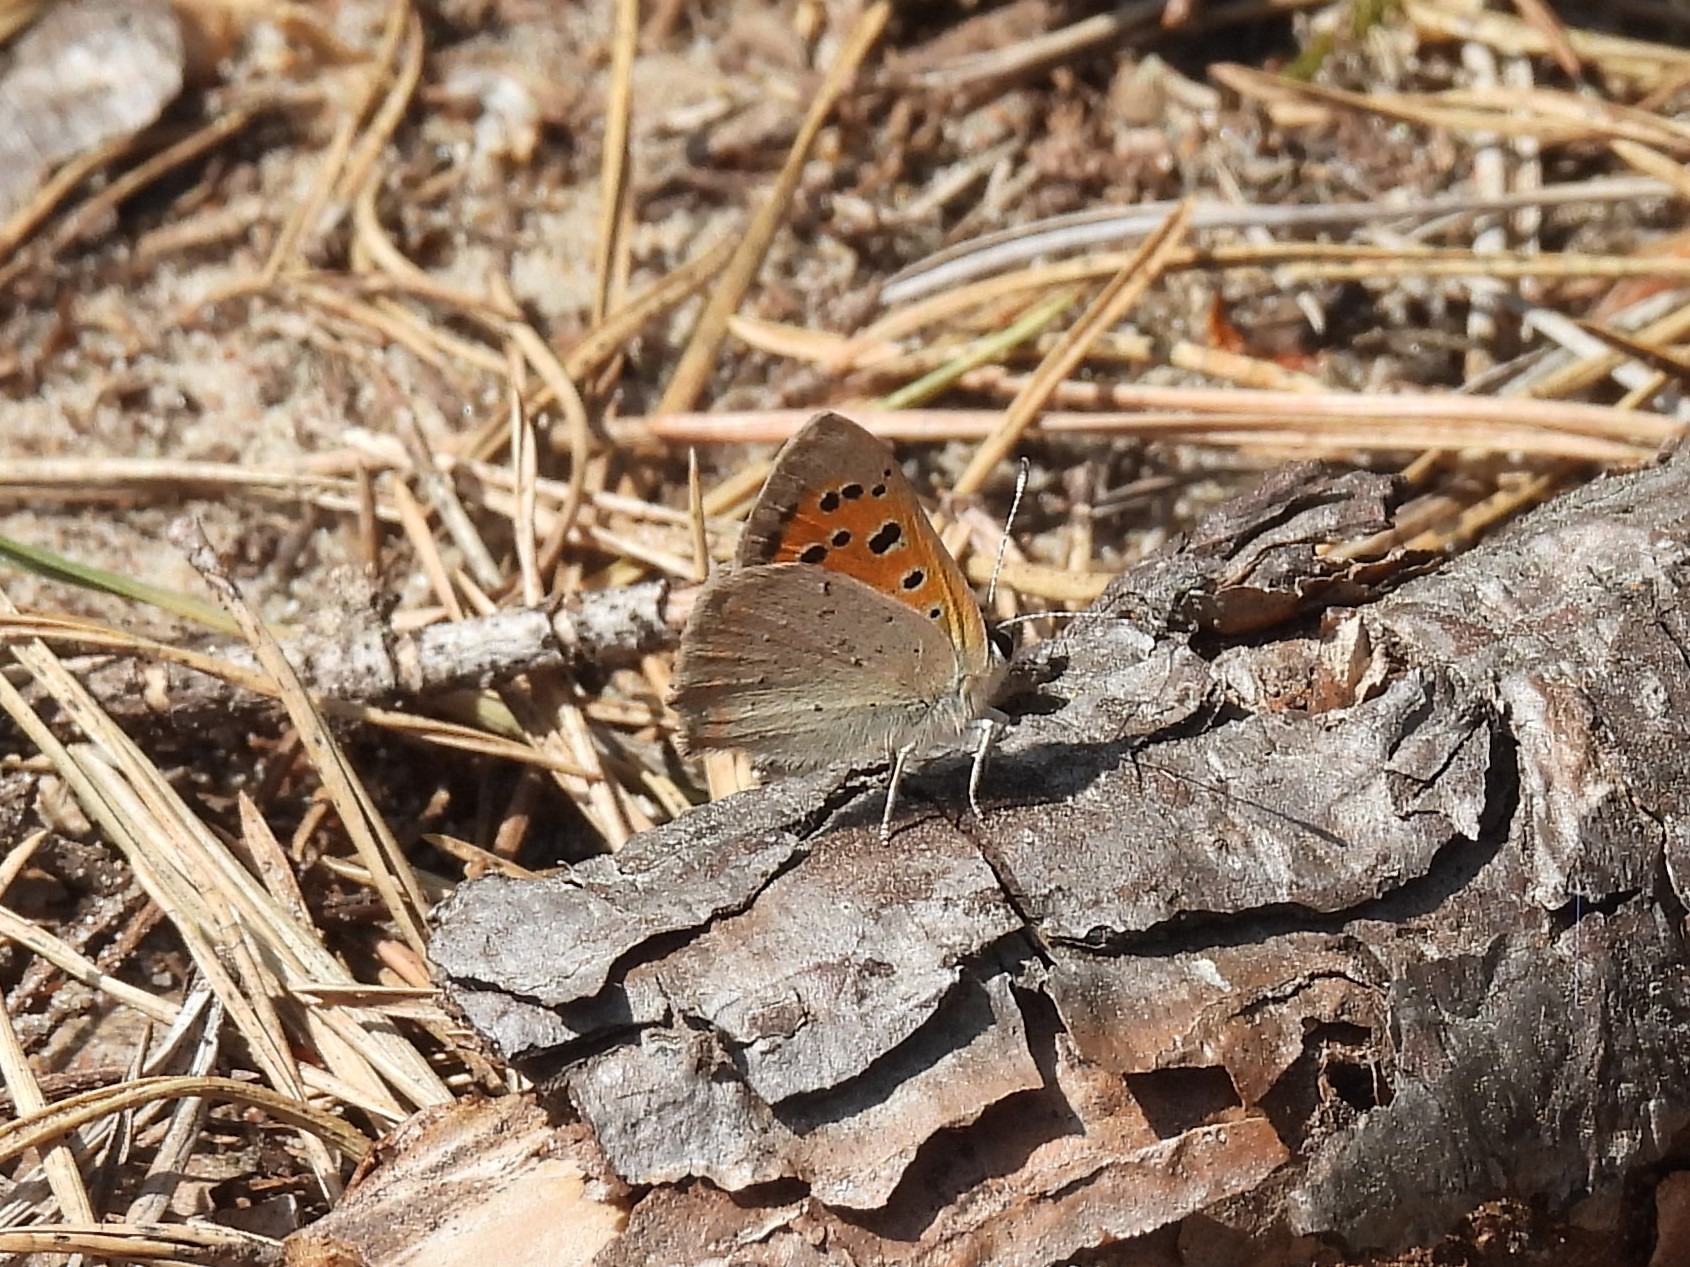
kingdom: Animalia
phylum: Arthropoda
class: Insecta
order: Lepidoptera
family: Lycaenidae
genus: Lycaena
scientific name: Lycaena phlaeas
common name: Lille ildfugl
